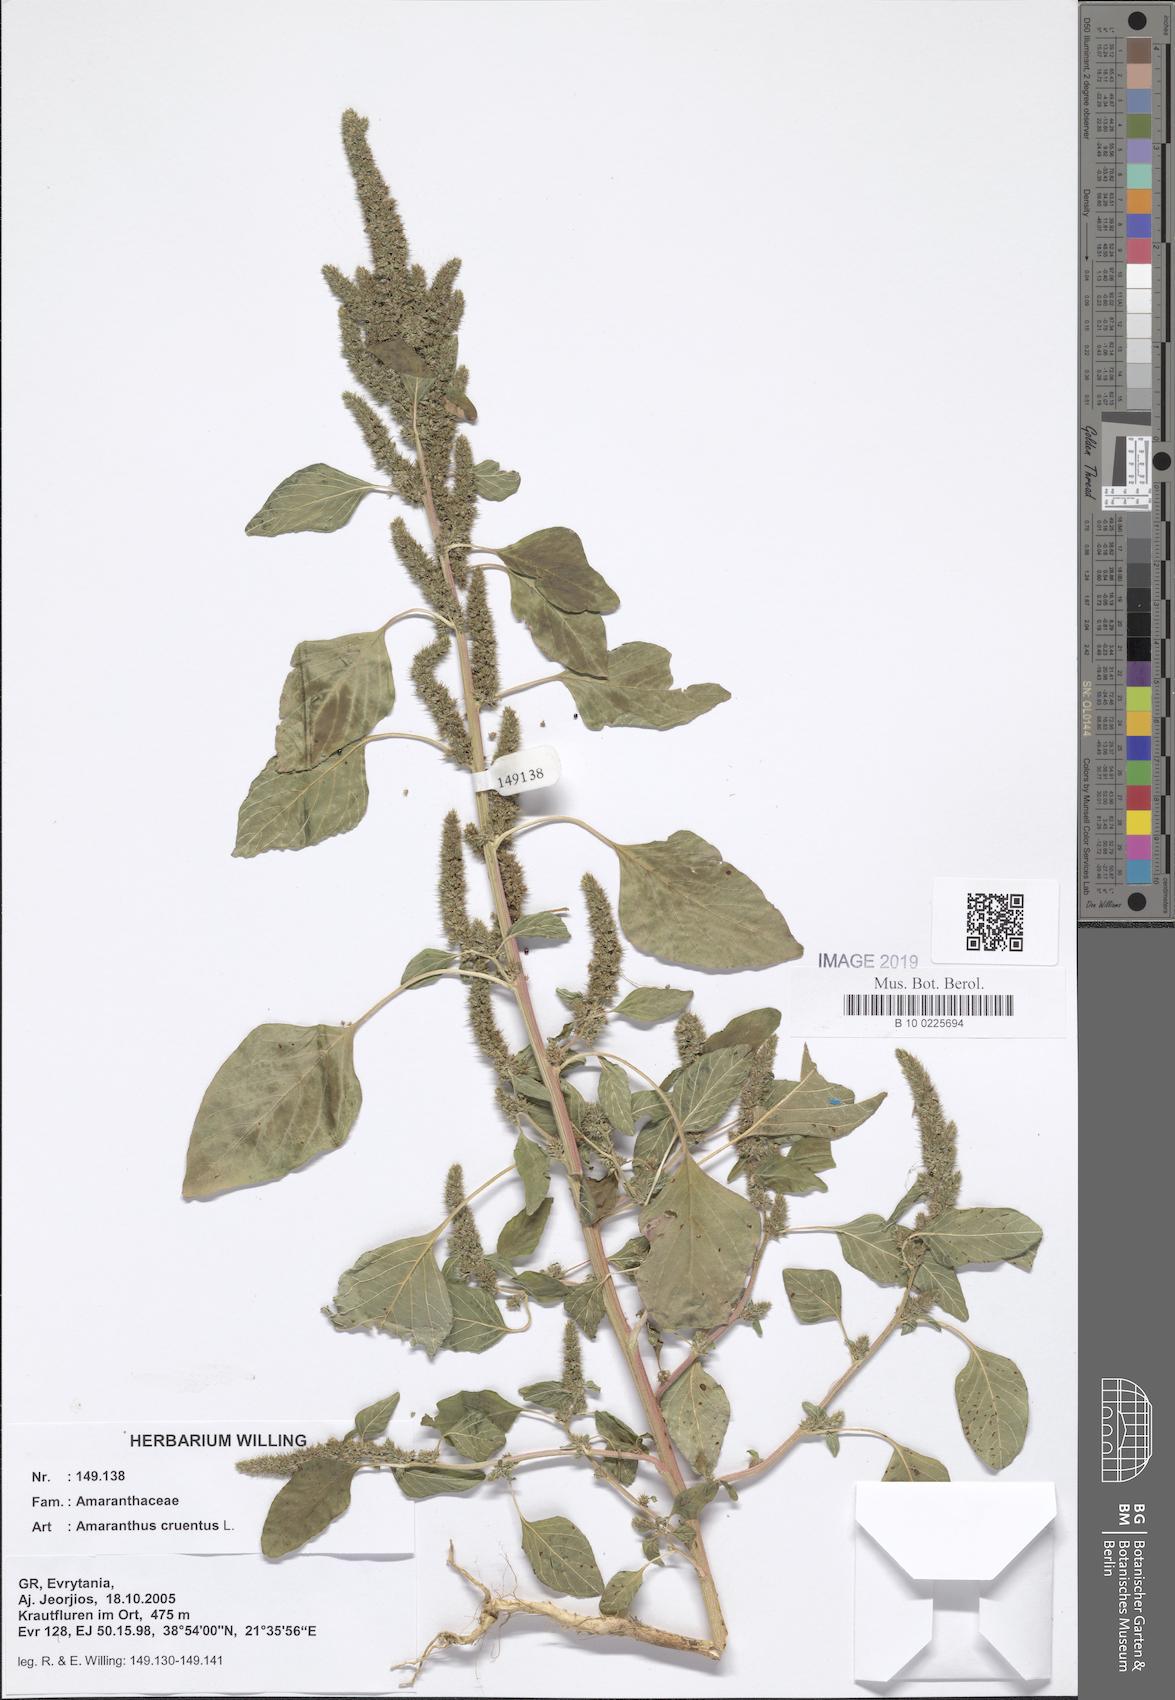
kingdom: Plantae
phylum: Tracheophyta
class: Magnoliopsida
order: Caryophyllales
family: Amaranthaceae
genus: Amaranthus
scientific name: Amaranthus cruentus
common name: Purple amaranth
